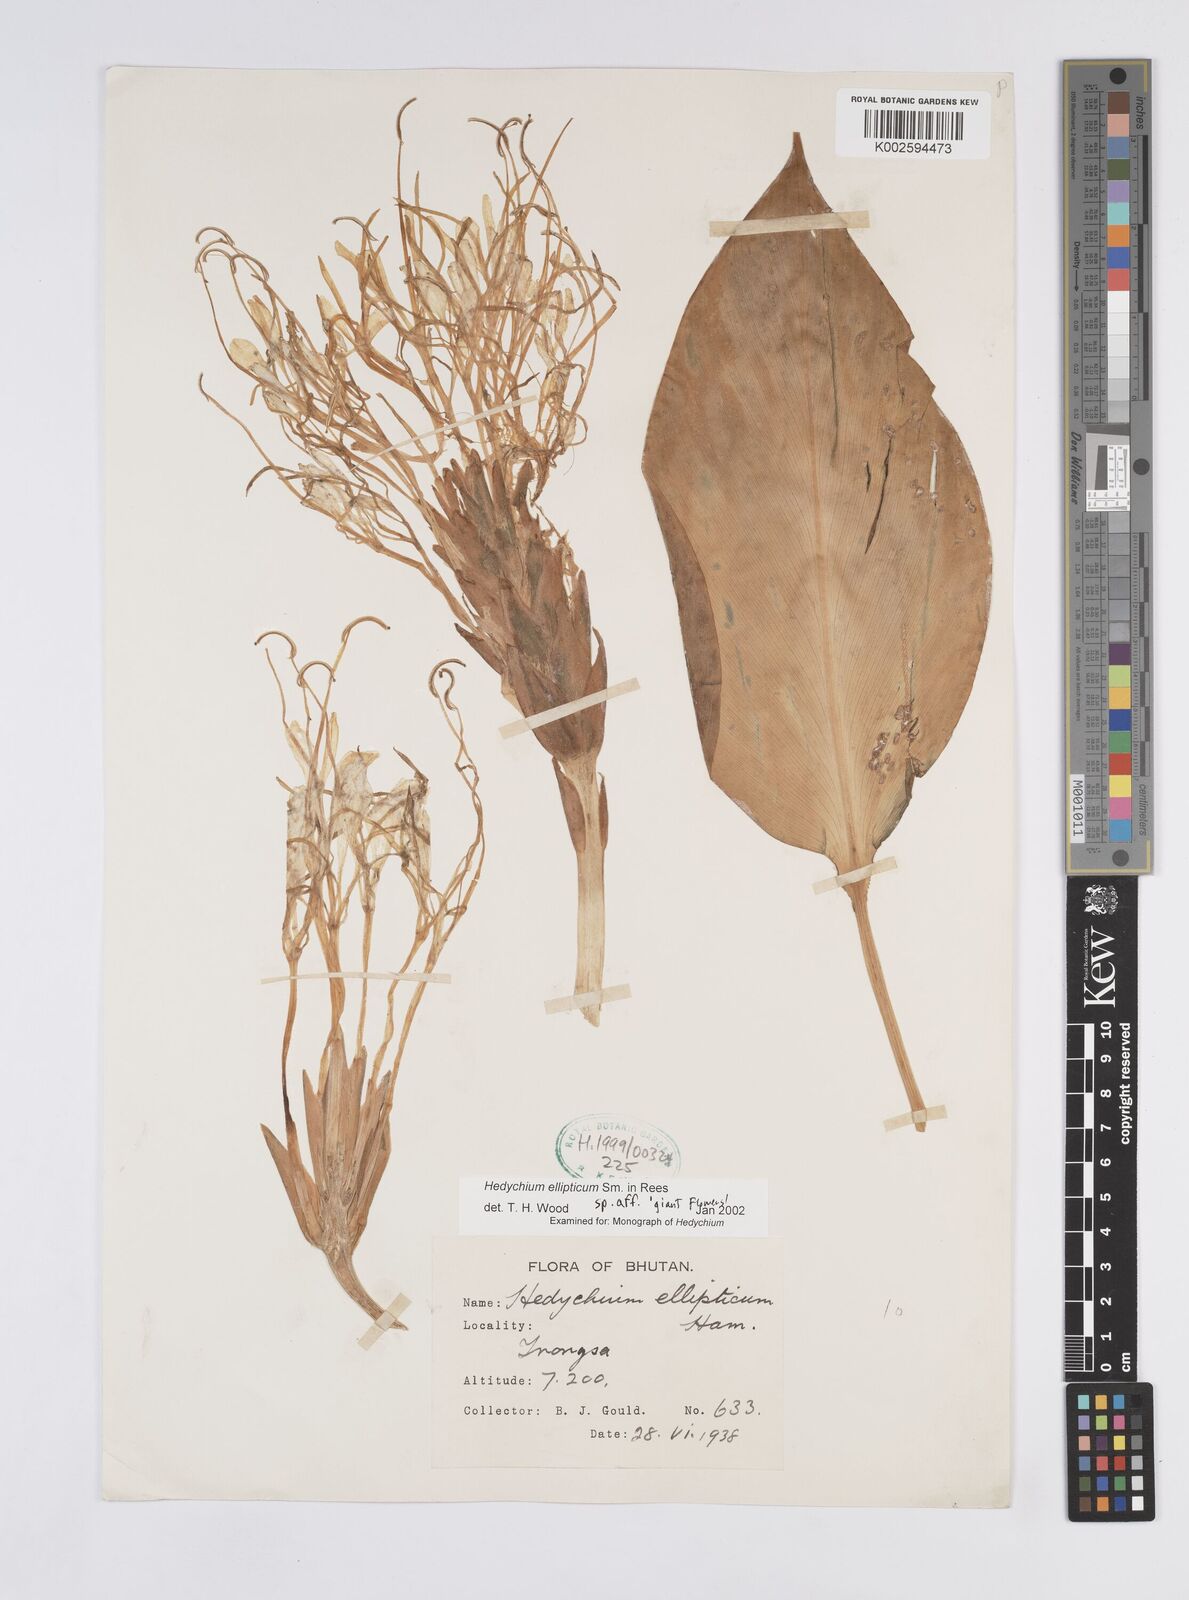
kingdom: Plantae
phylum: Tracheophyta
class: Liliopsida
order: Zingiberales
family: Zingiberaceae
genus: Hedychium
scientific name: Hedychium ellipticum
